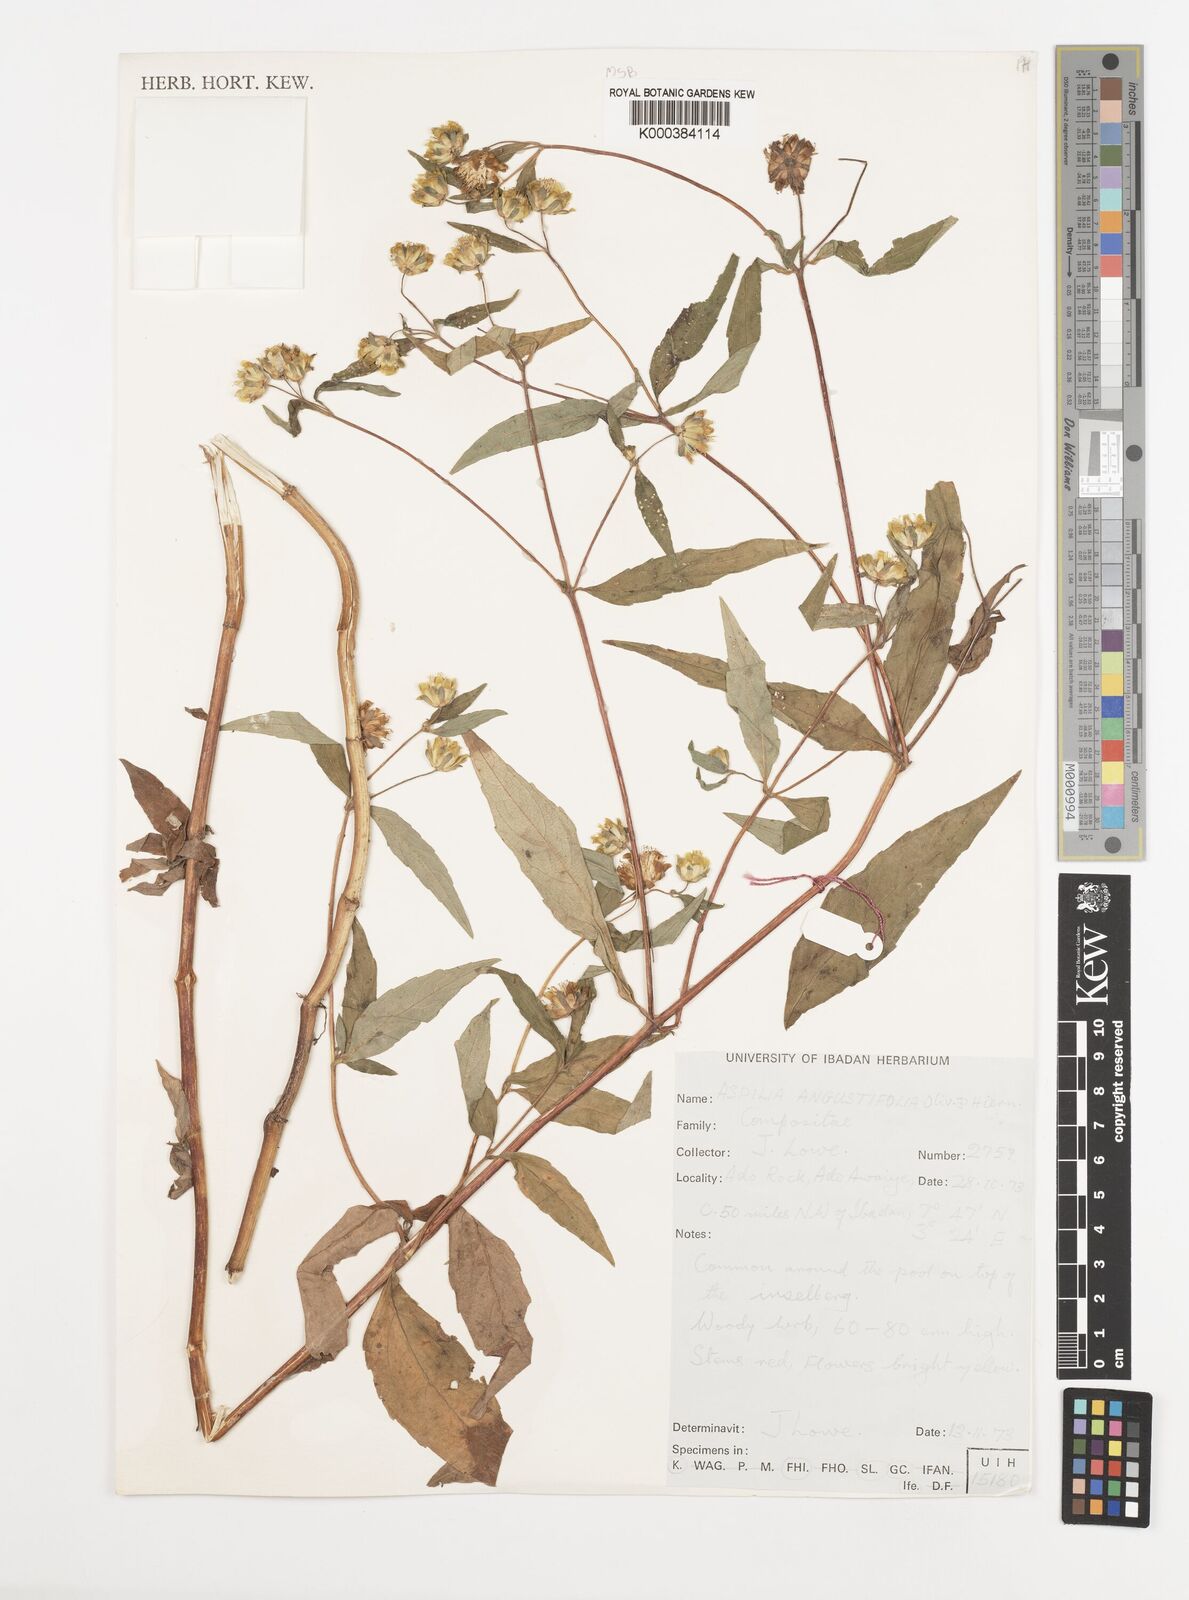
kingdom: Plantae
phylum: Tracheophyta
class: Magnoliopsida
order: Asterales
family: Asteraceae
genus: Aspilia
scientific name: Aspilia angustifolia
